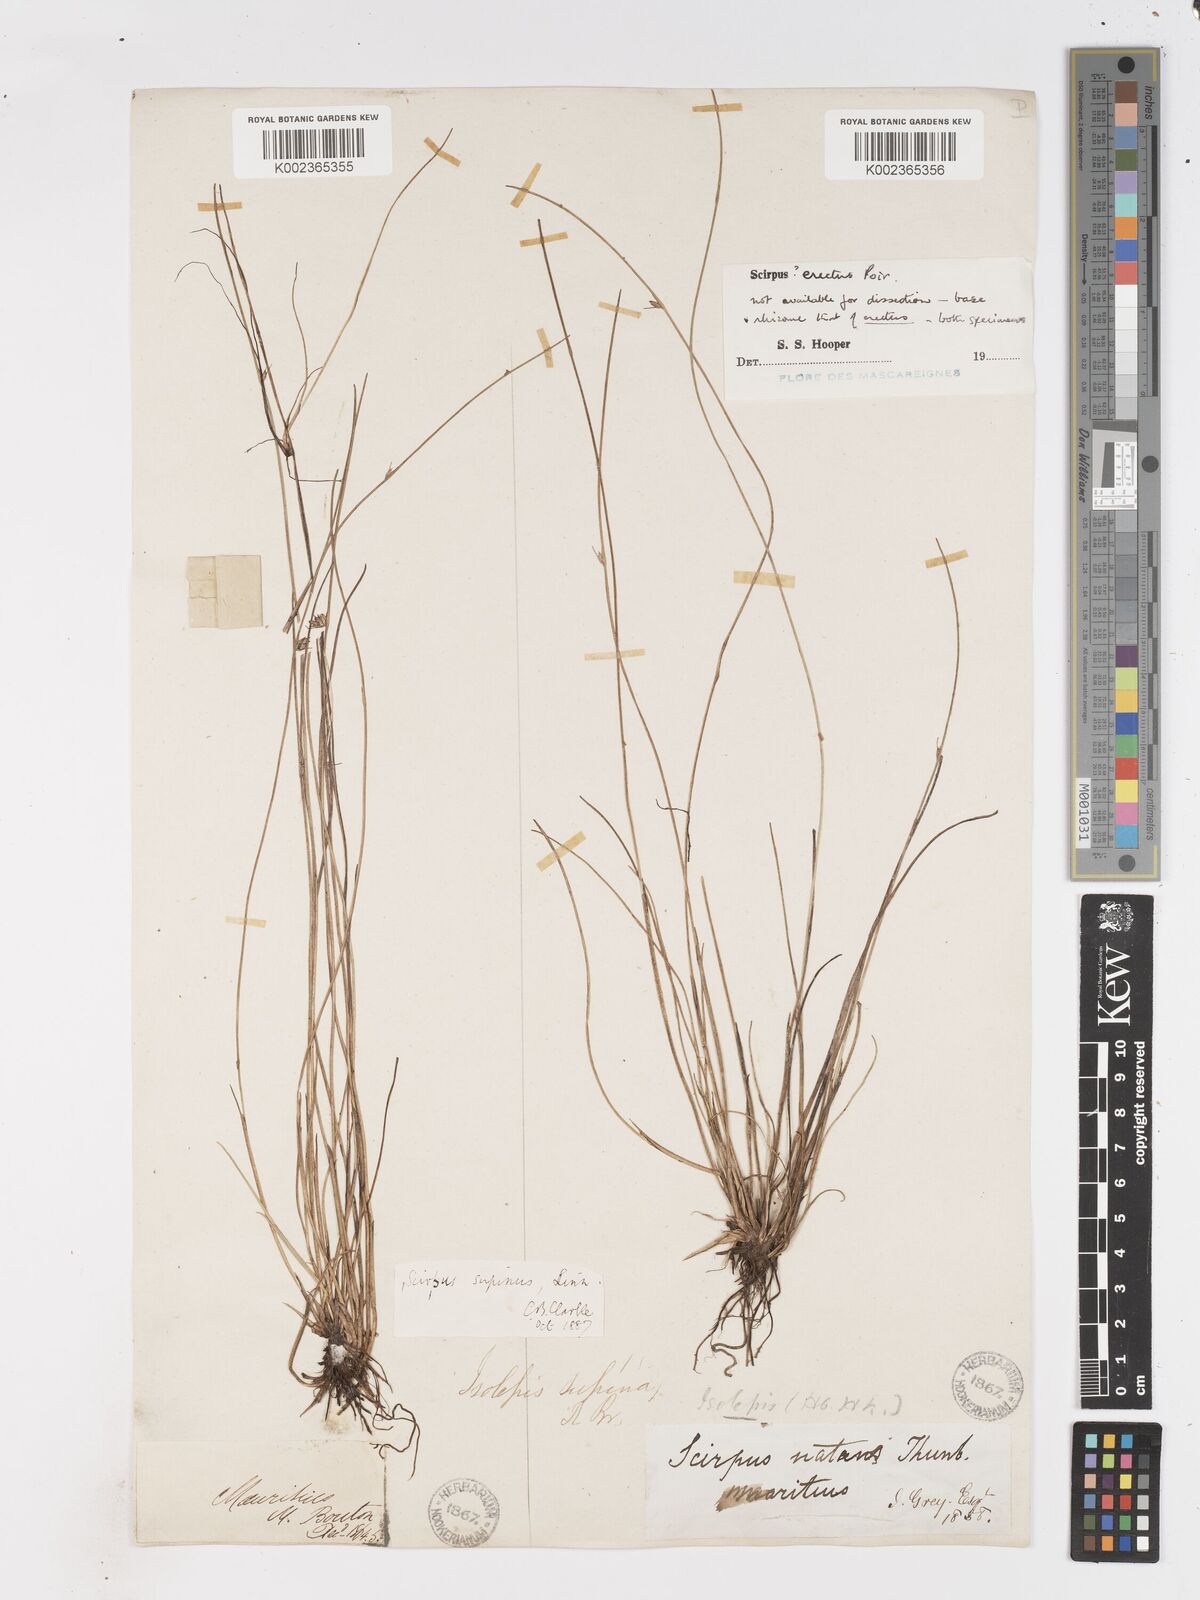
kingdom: Plantae
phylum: Tracheophyta
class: Liliopsida
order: Poales
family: Cyperaceae
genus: Schoenoplectiella
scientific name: Schoenoplectiella erecta
